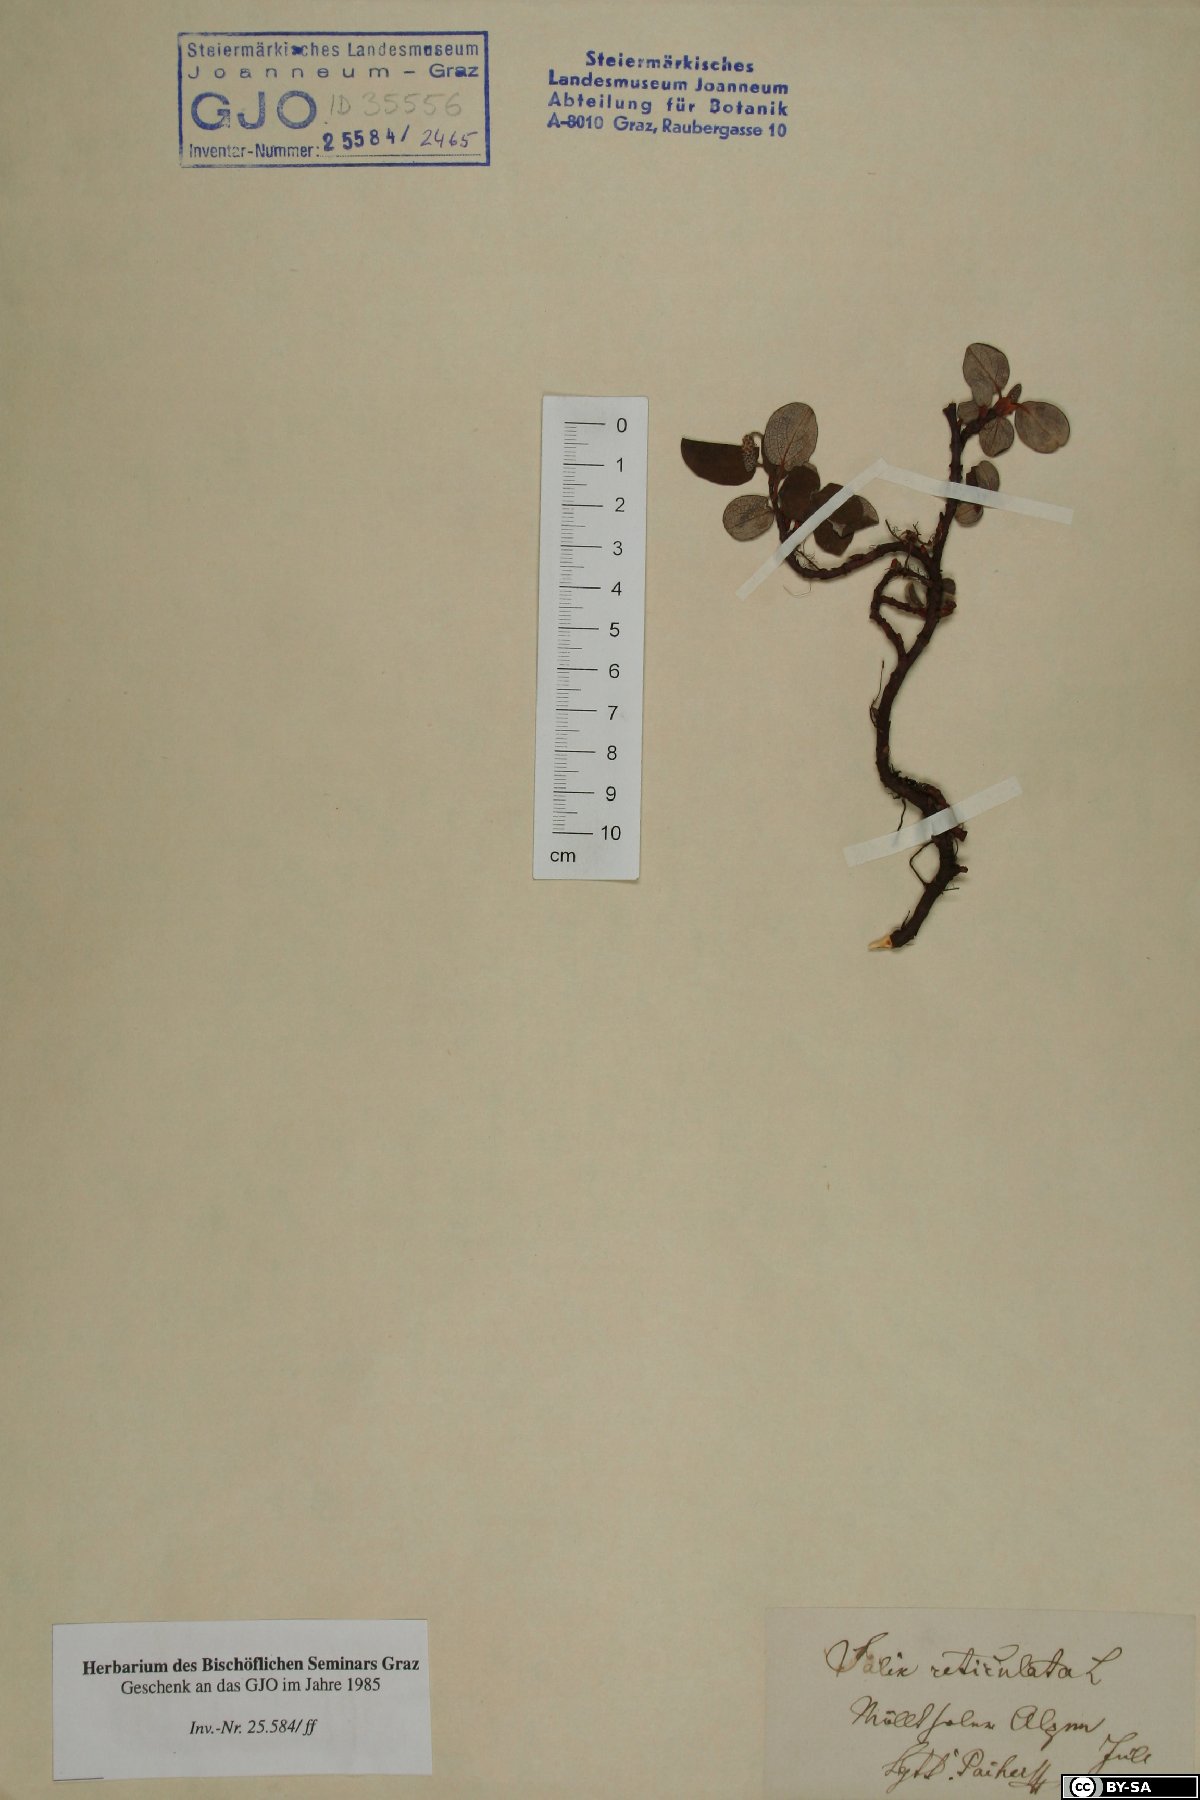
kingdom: Plantae
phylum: Tracheophyta
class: Magnoliopsida
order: Malpighiales
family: Salicaceae
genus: Salix
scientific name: Salix reticulata
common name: Net-leaved willow
